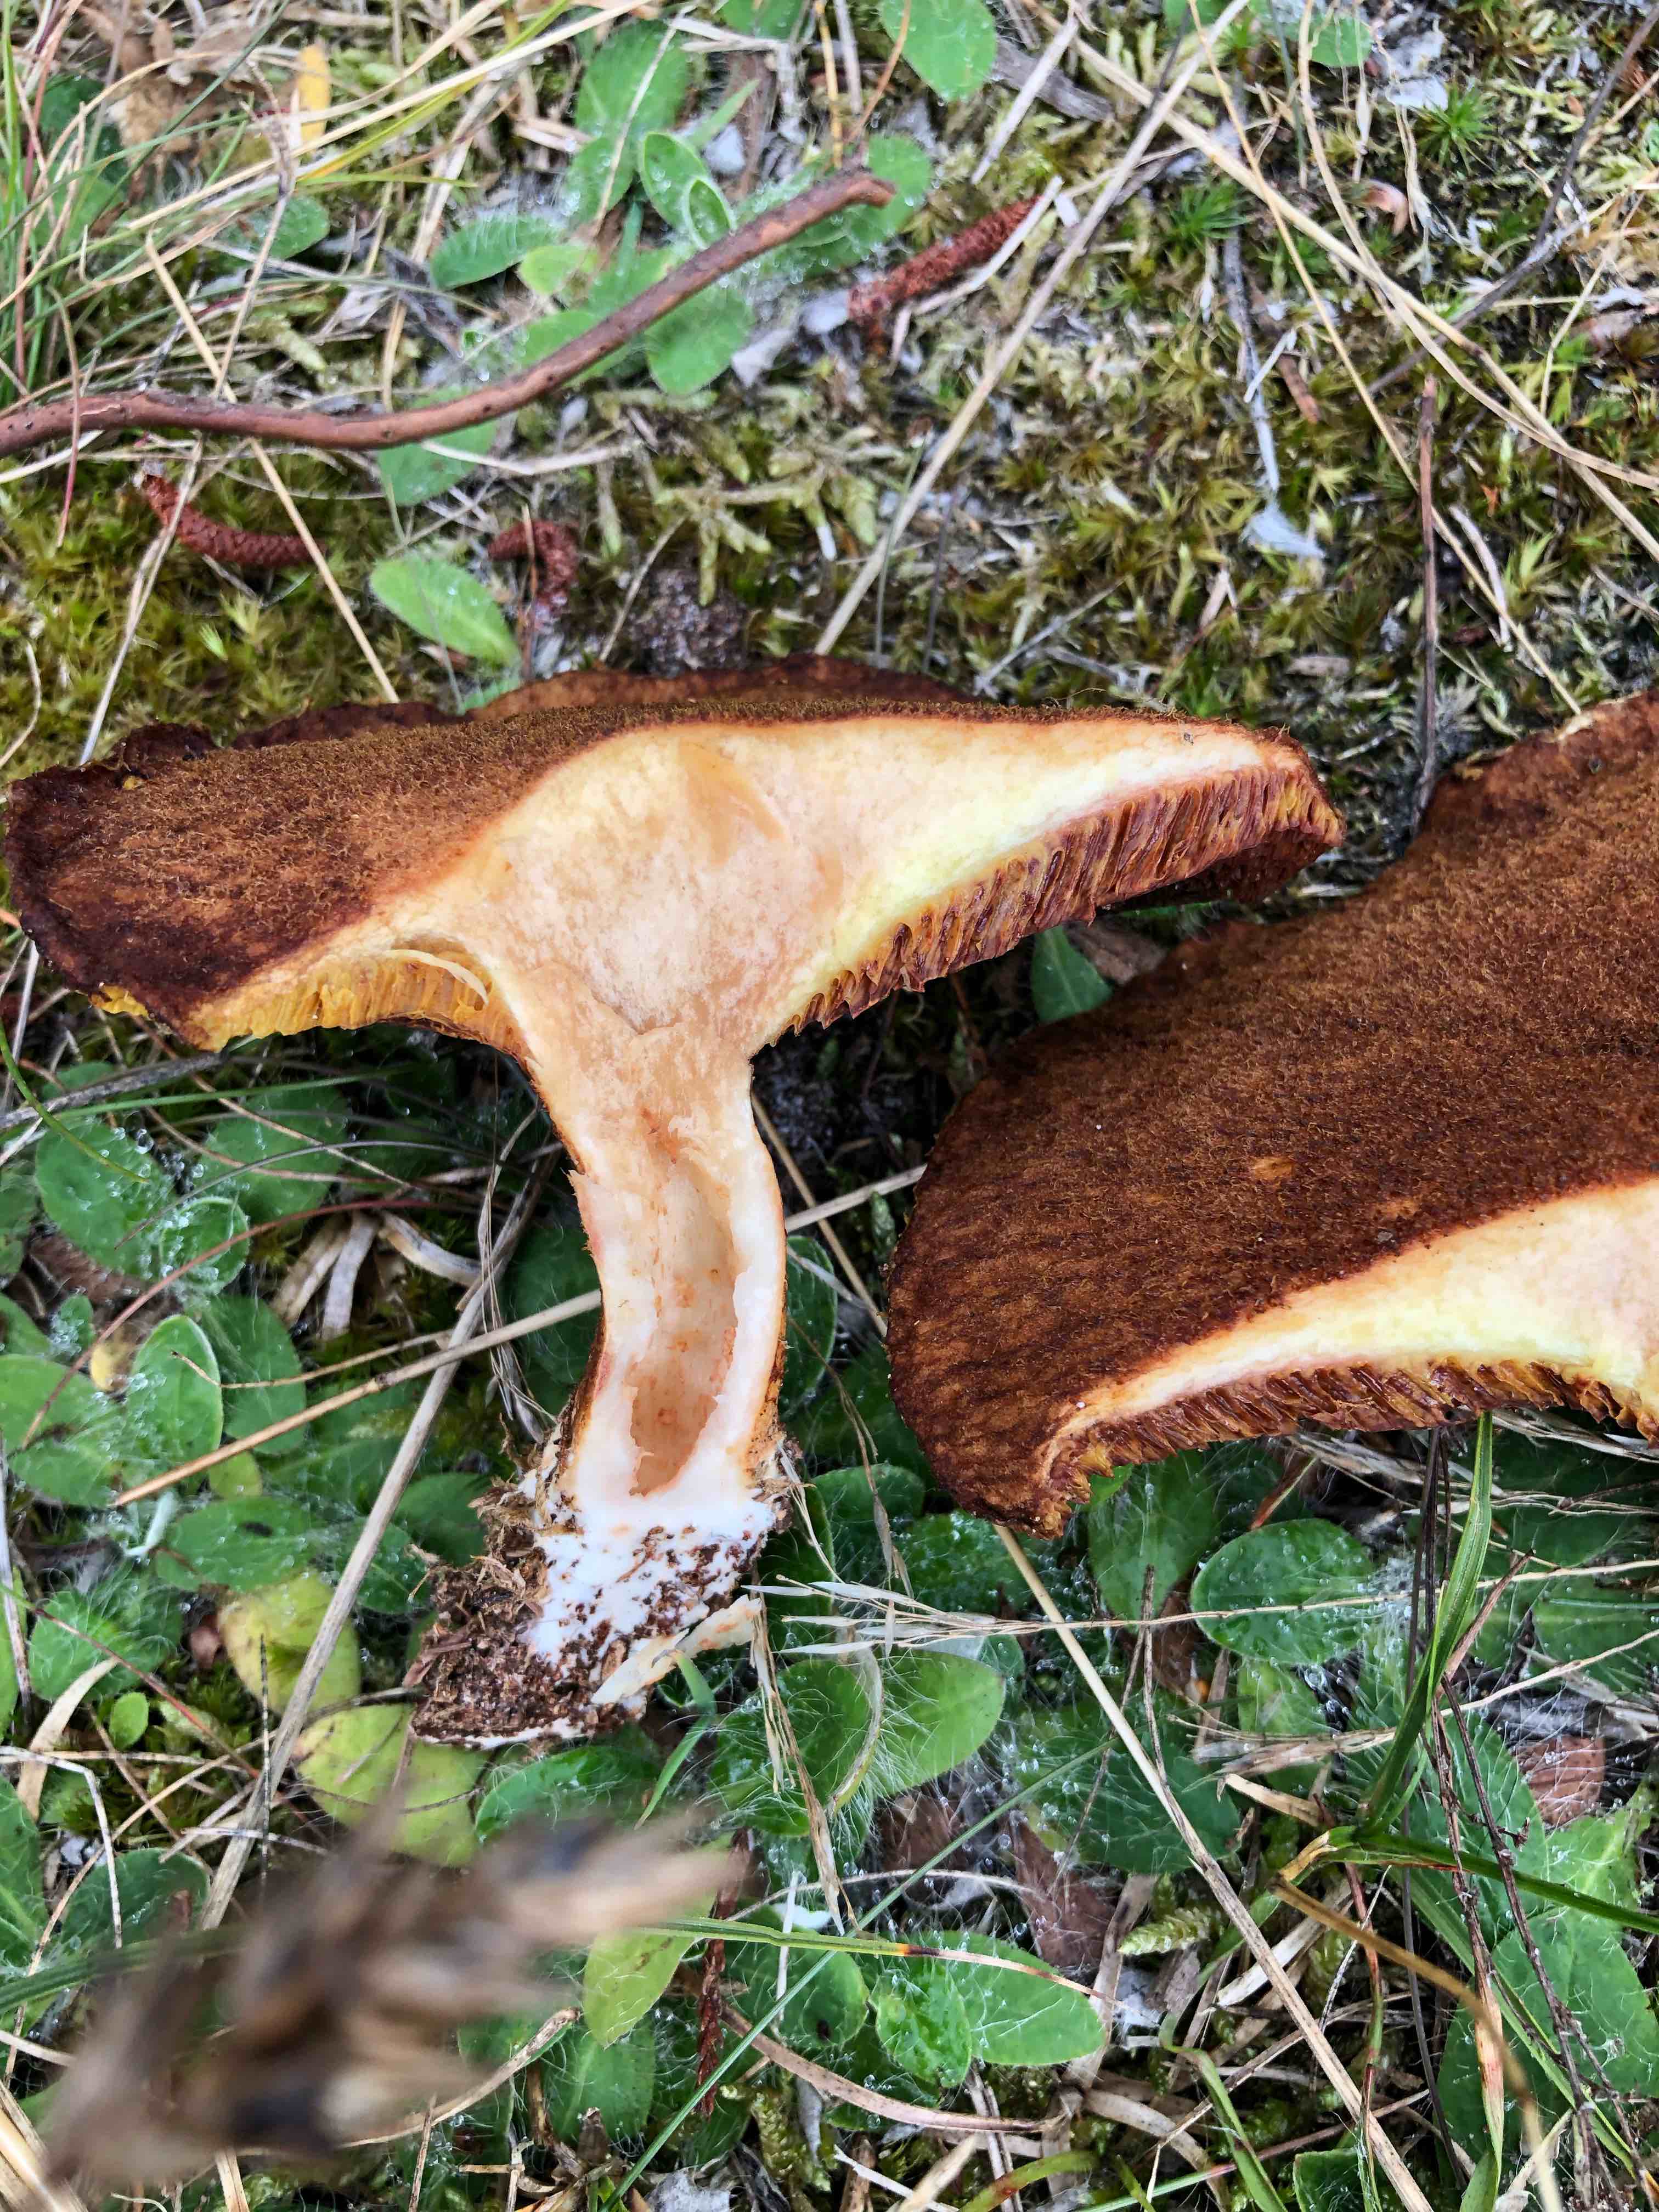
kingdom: Fungi
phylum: Basidiomycota
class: Agaricomycetes
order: Boletales
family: Suillaceae
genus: Suillus
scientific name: Suillus cavipes
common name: hulstokket slimrørhat
